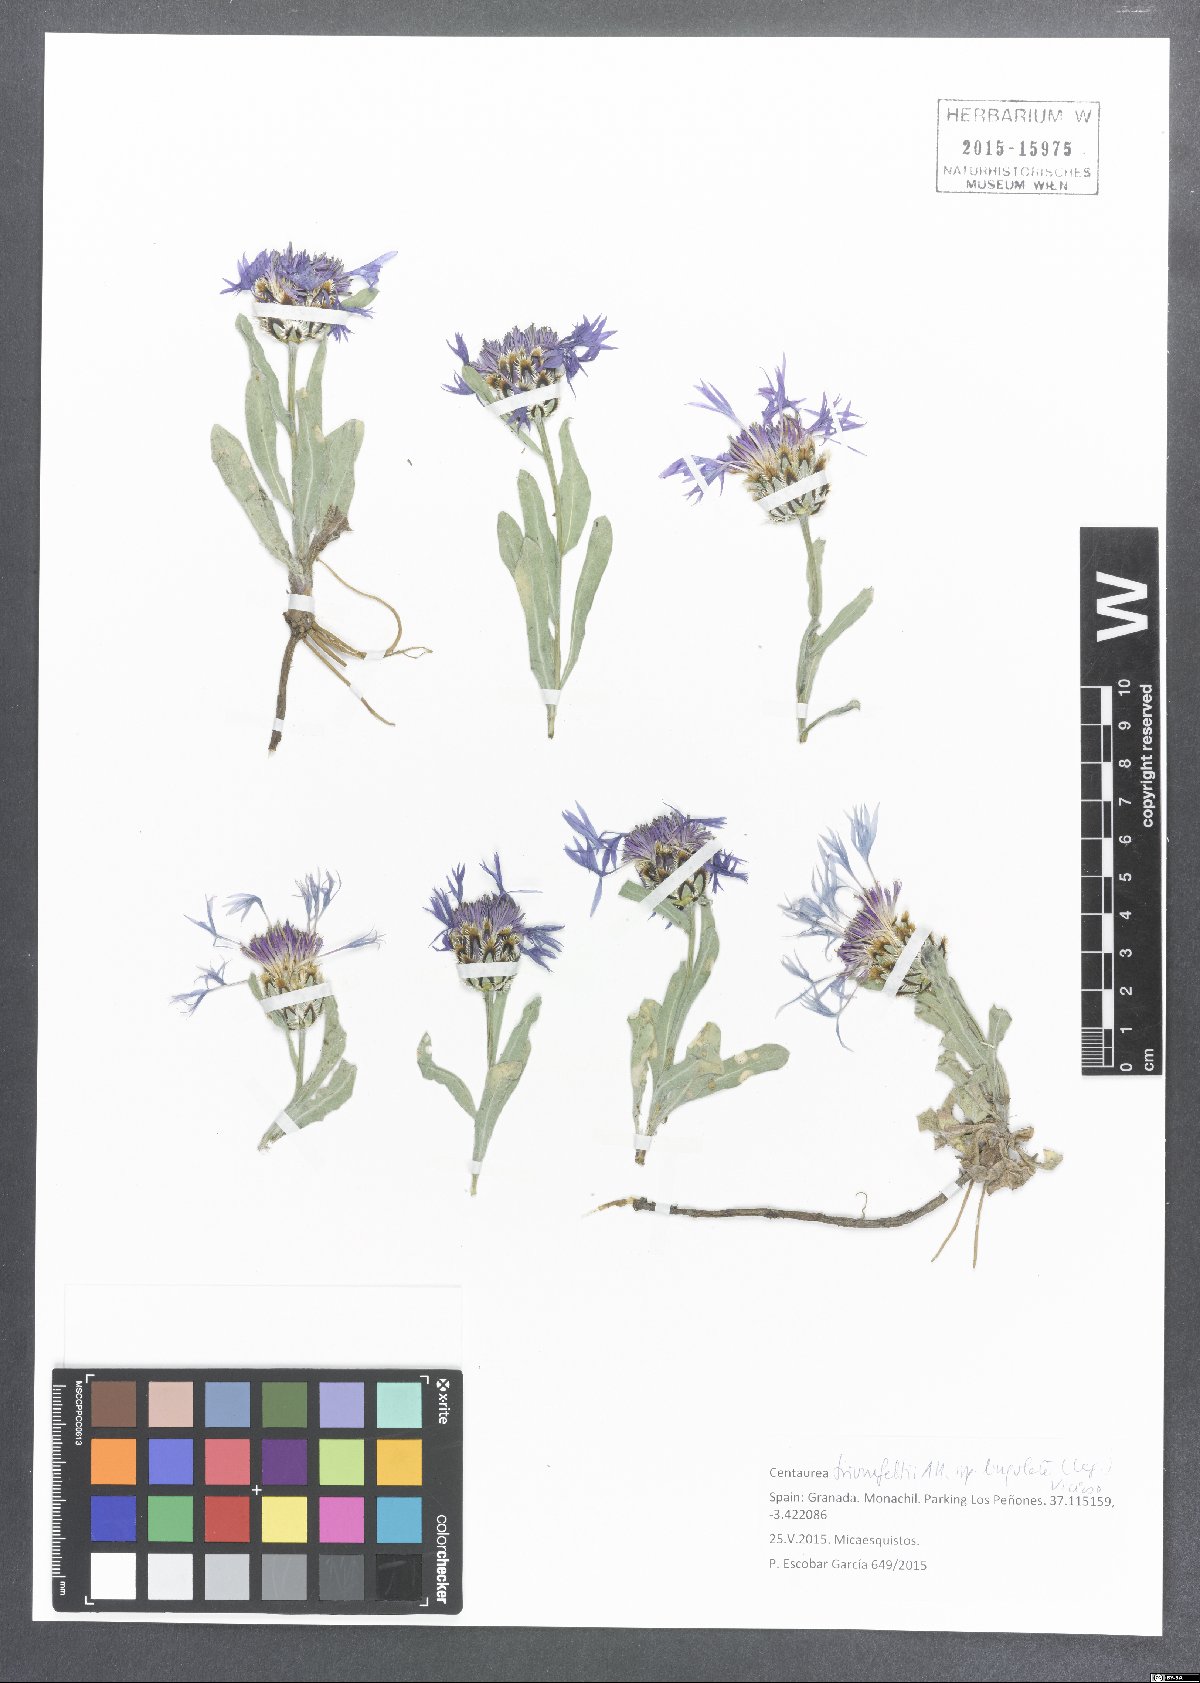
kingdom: Plantae
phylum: Tracheophyta
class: Magnoliopsida
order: Asterales
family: Asteraceae
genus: Centaurea
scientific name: Centaurea graminifolia
